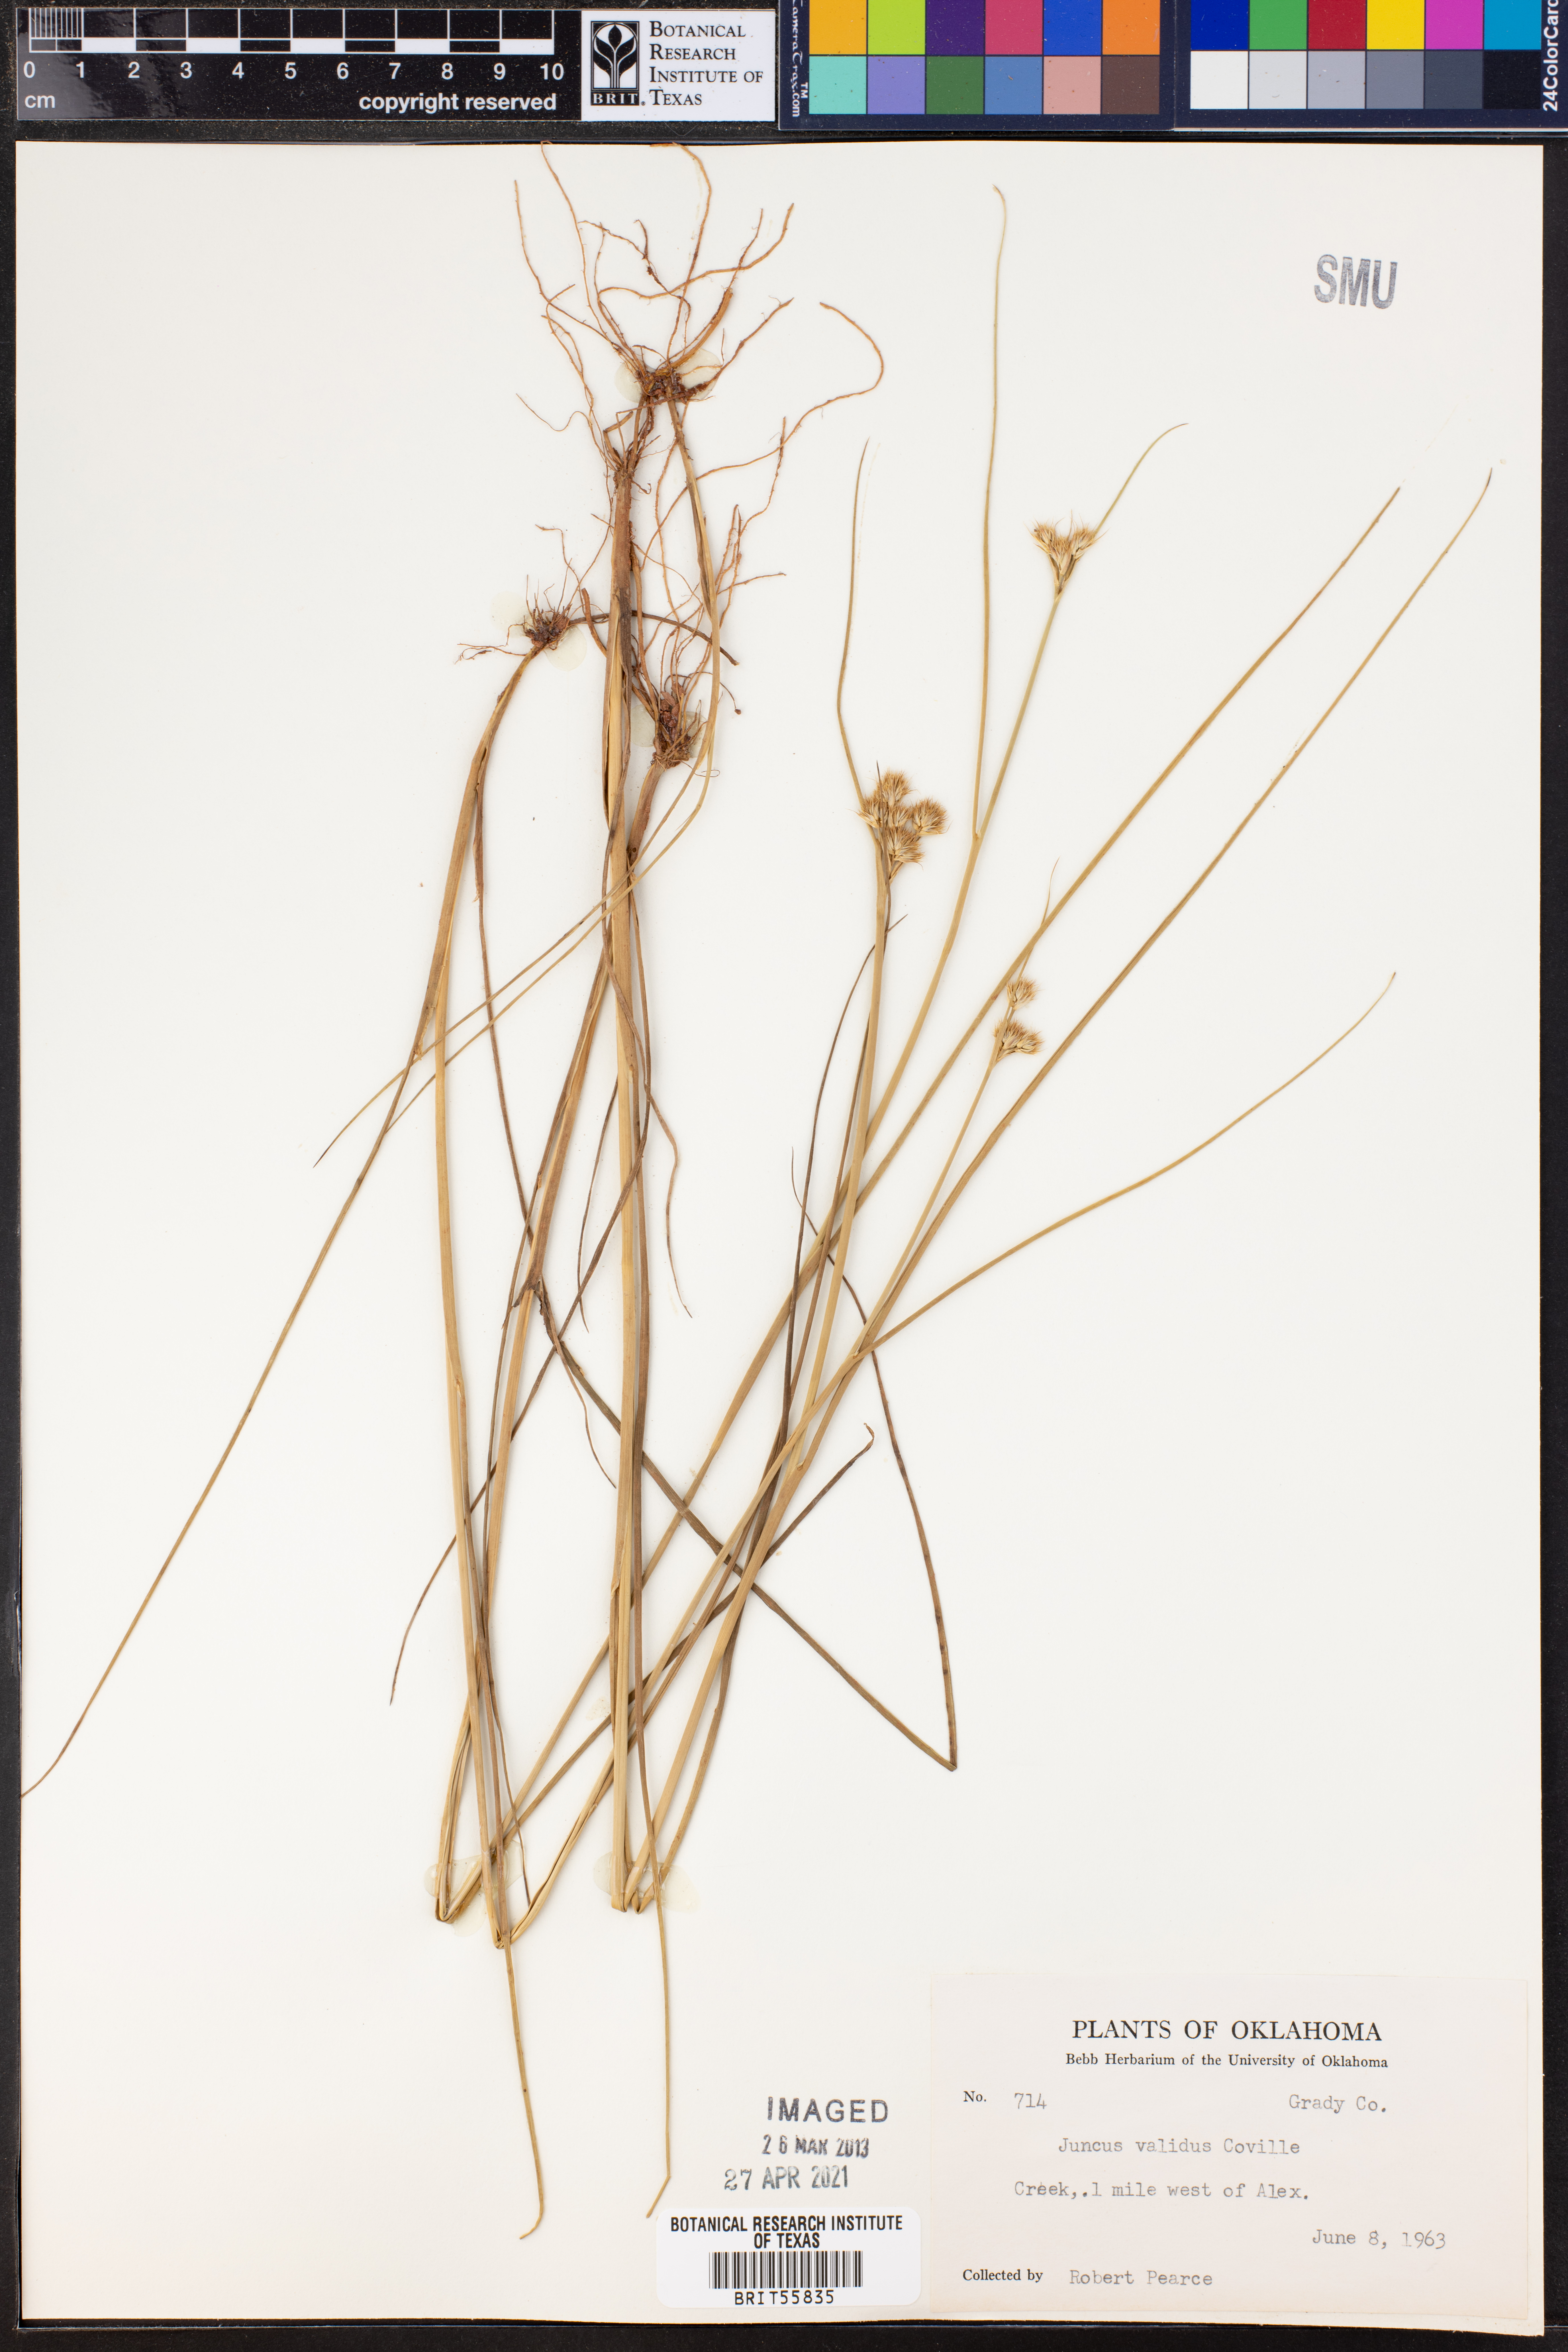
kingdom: Plantae
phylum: Tracheophyta
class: Liliopsida
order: Poales
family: Juncaceae
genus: Juncus
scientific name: Juncus validus
